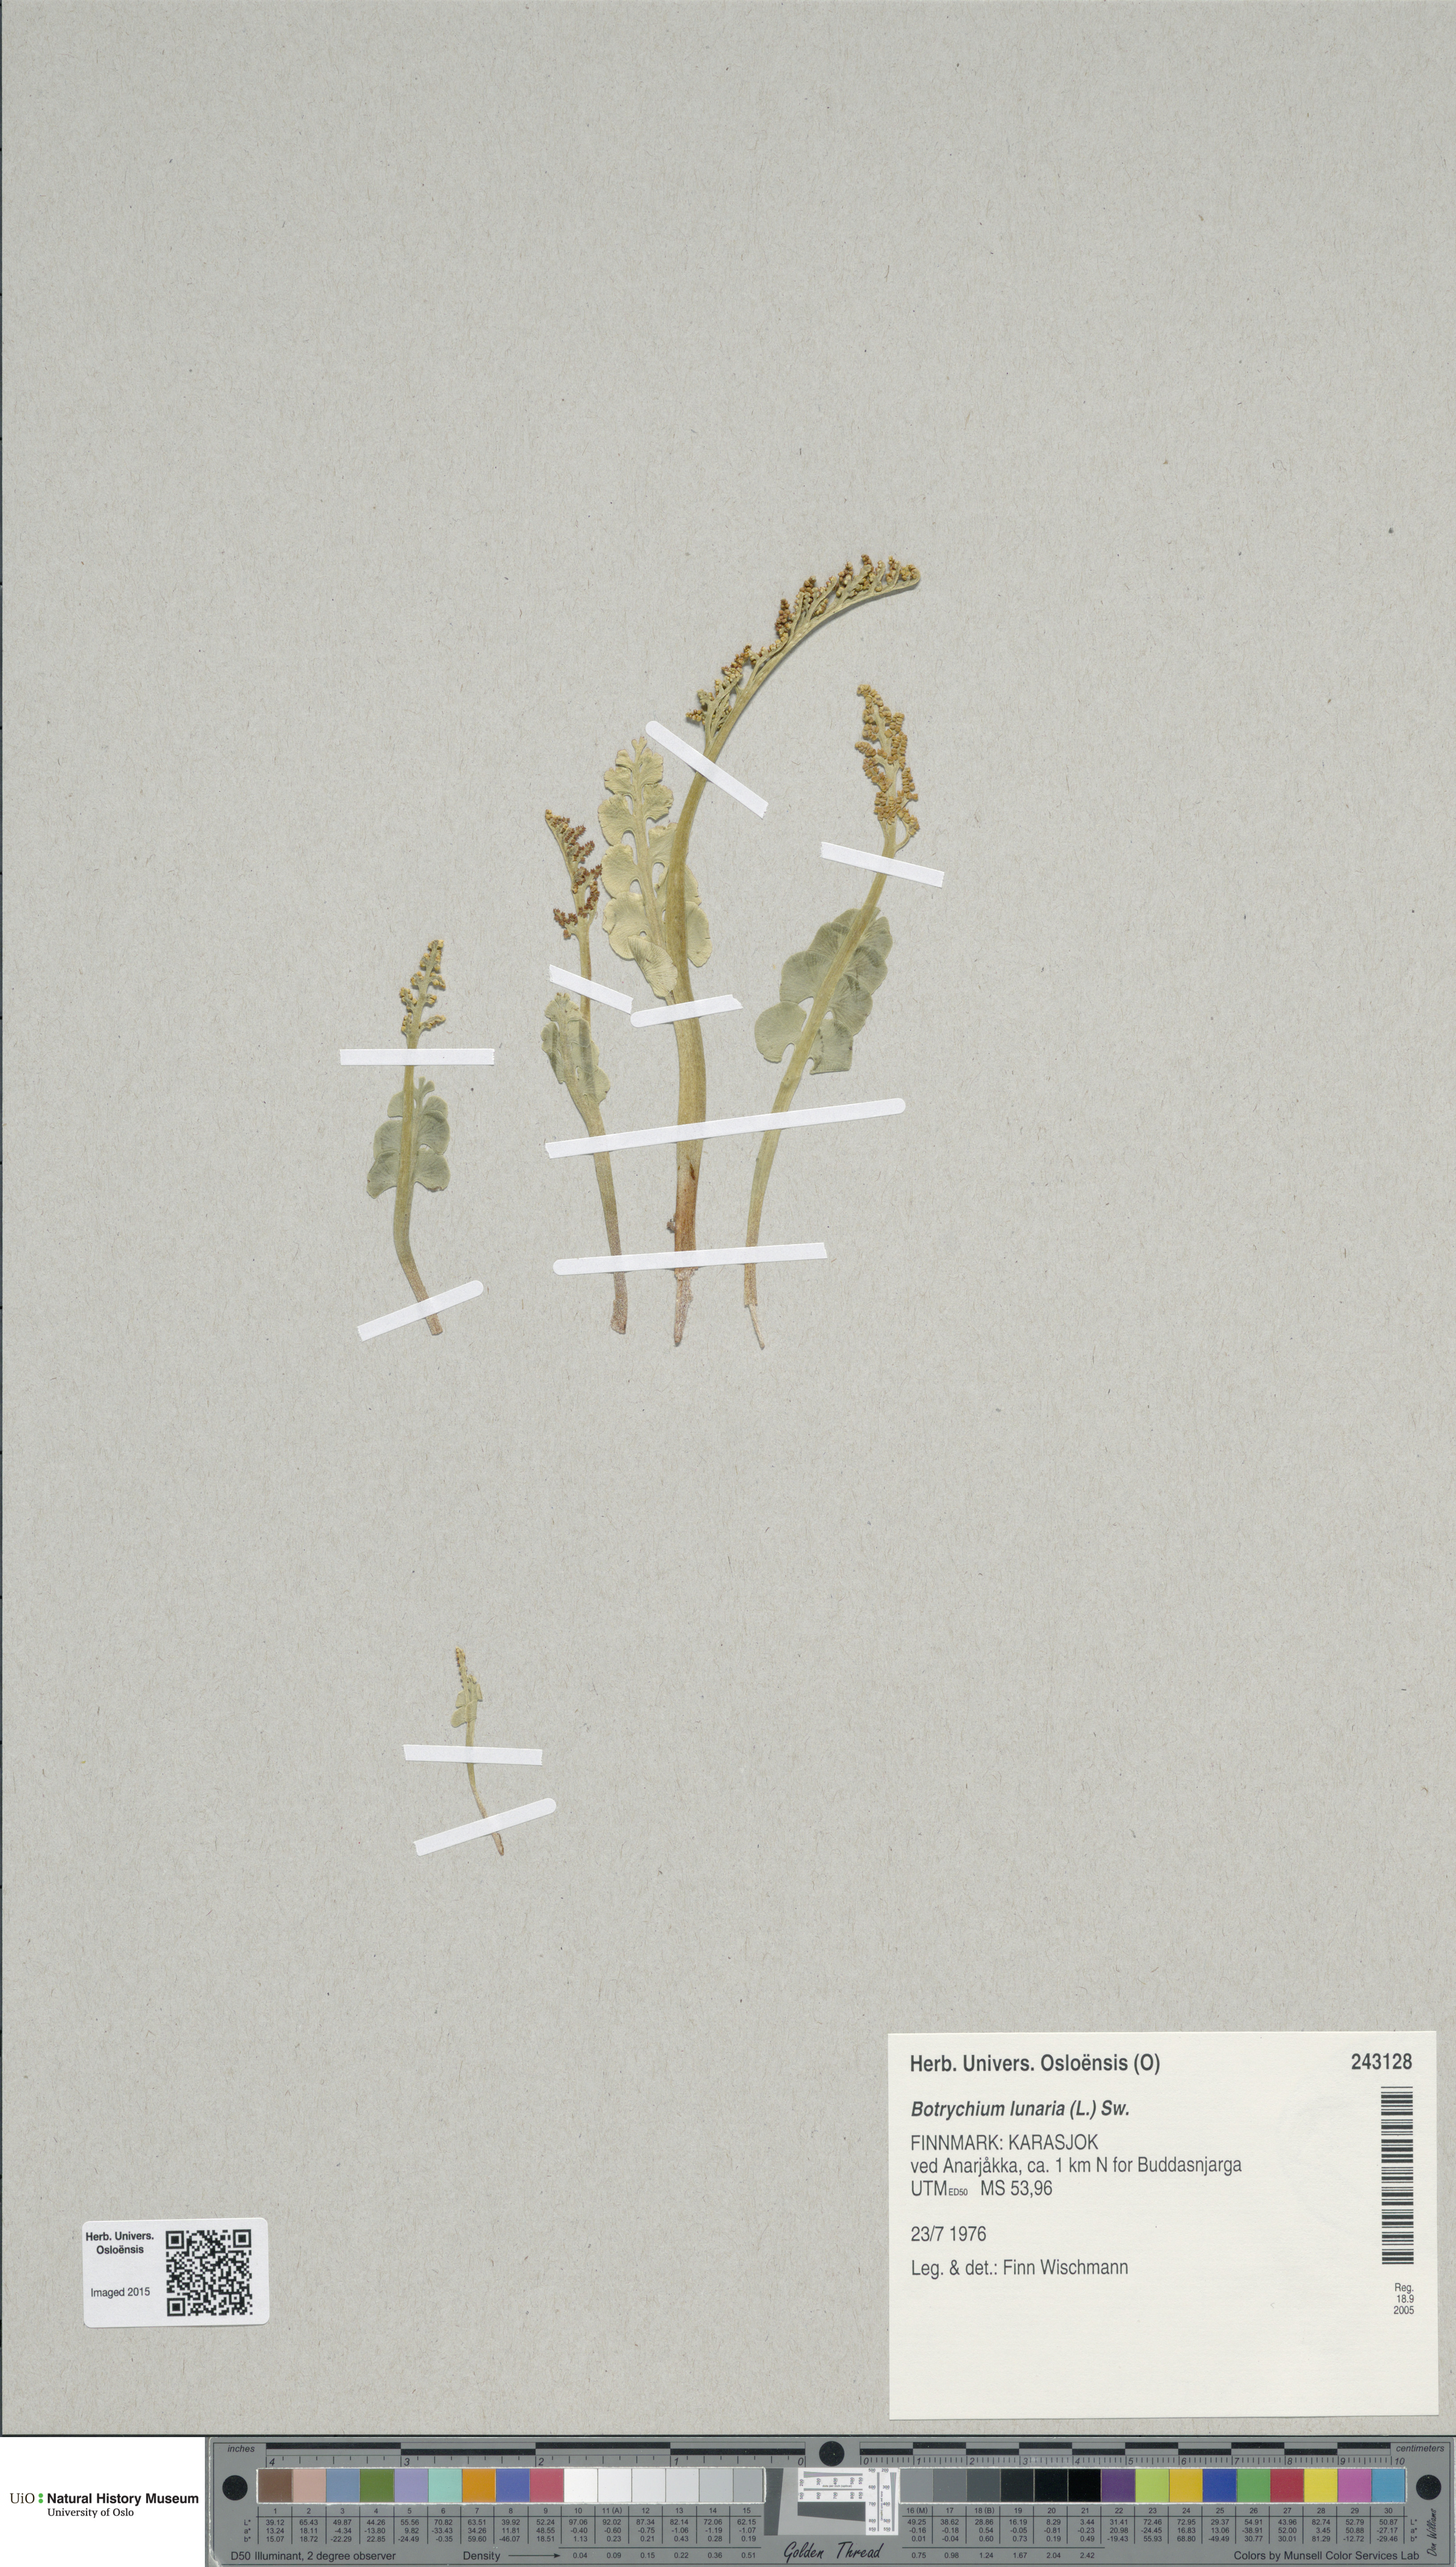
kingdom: Plantae
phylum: Tracheophyta
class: Polypodiopsida
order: Ophioglossales
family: Ophioglossaceae
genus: Botrychium
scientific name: Botrychium lunaria
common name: Moonwort
